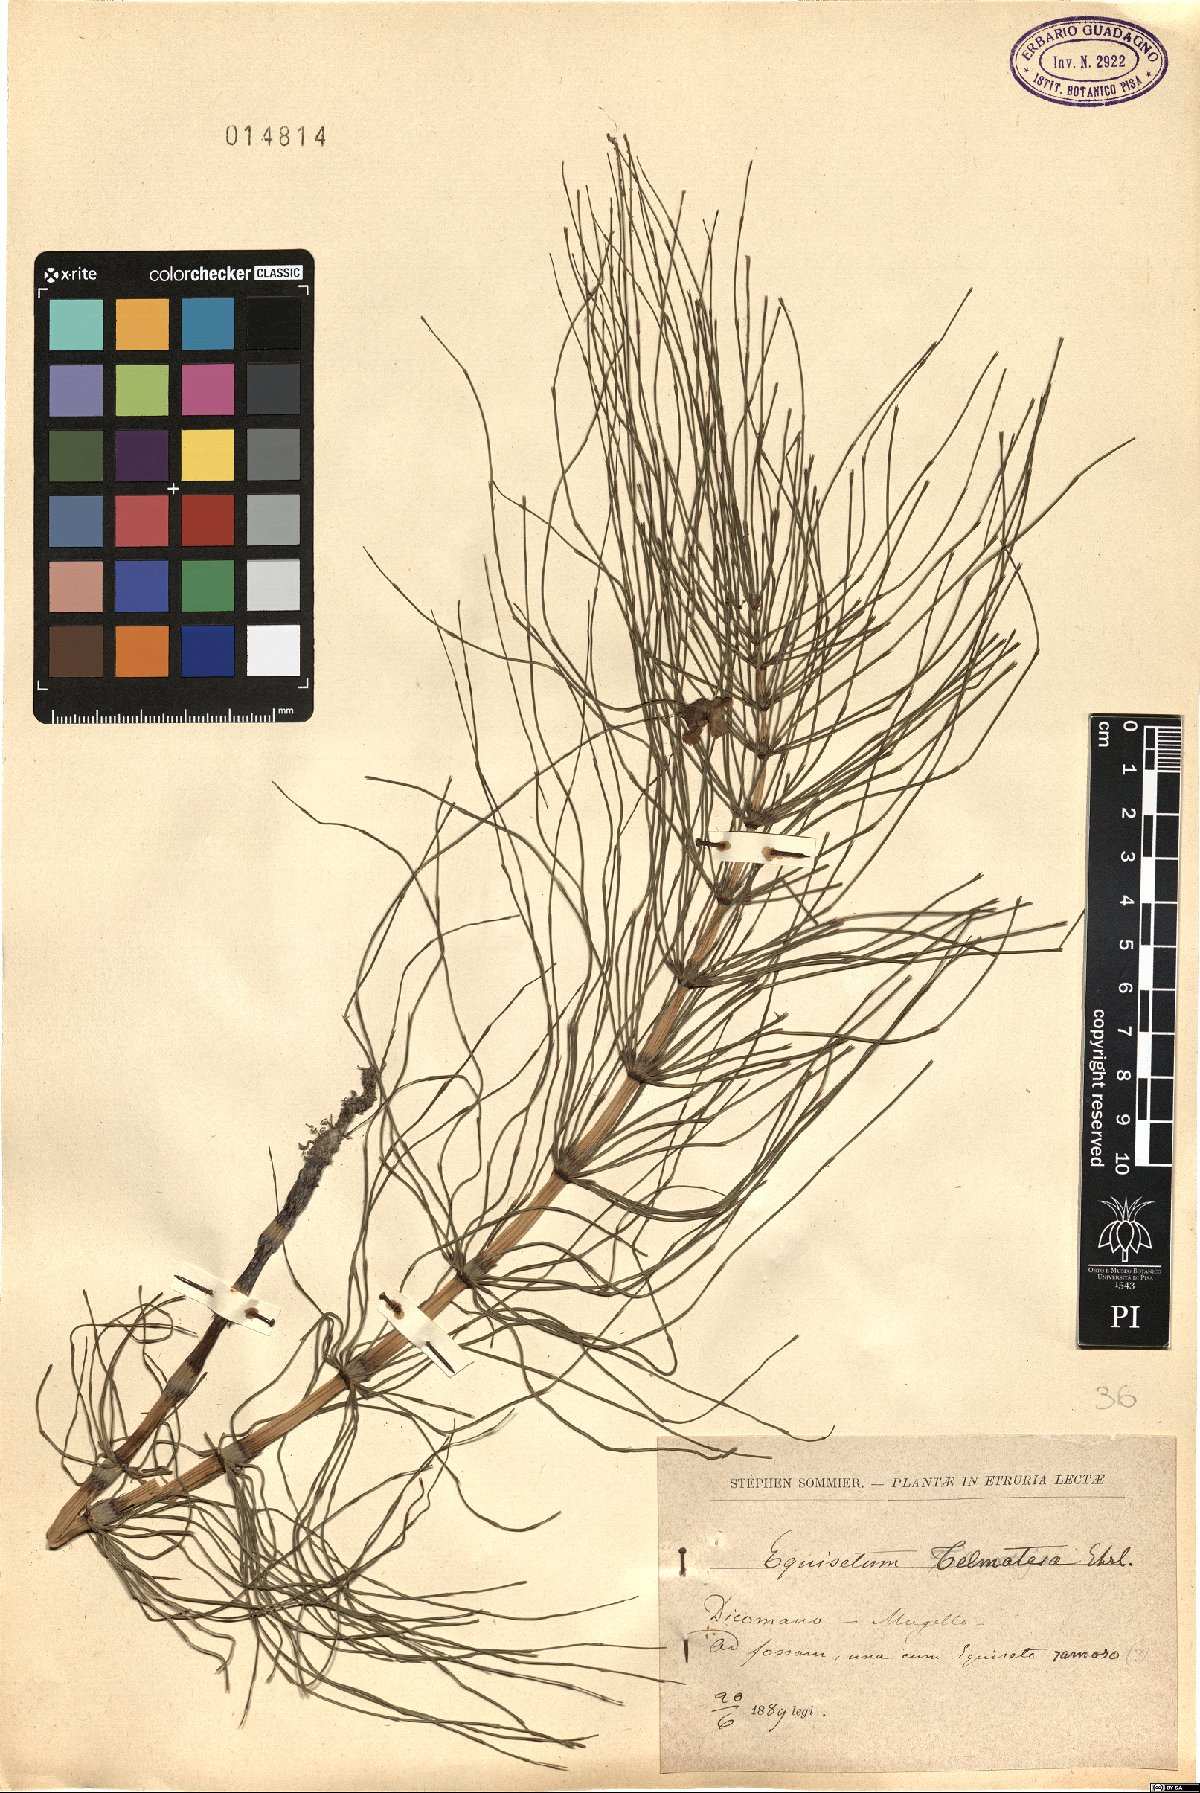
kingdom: Plantae
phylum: Tracheophyta
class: Polypodiopsida
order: Equisetales
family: Equisetaceae
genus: Equisetum
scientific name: Equisetum telmateia
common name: Great horsetail
